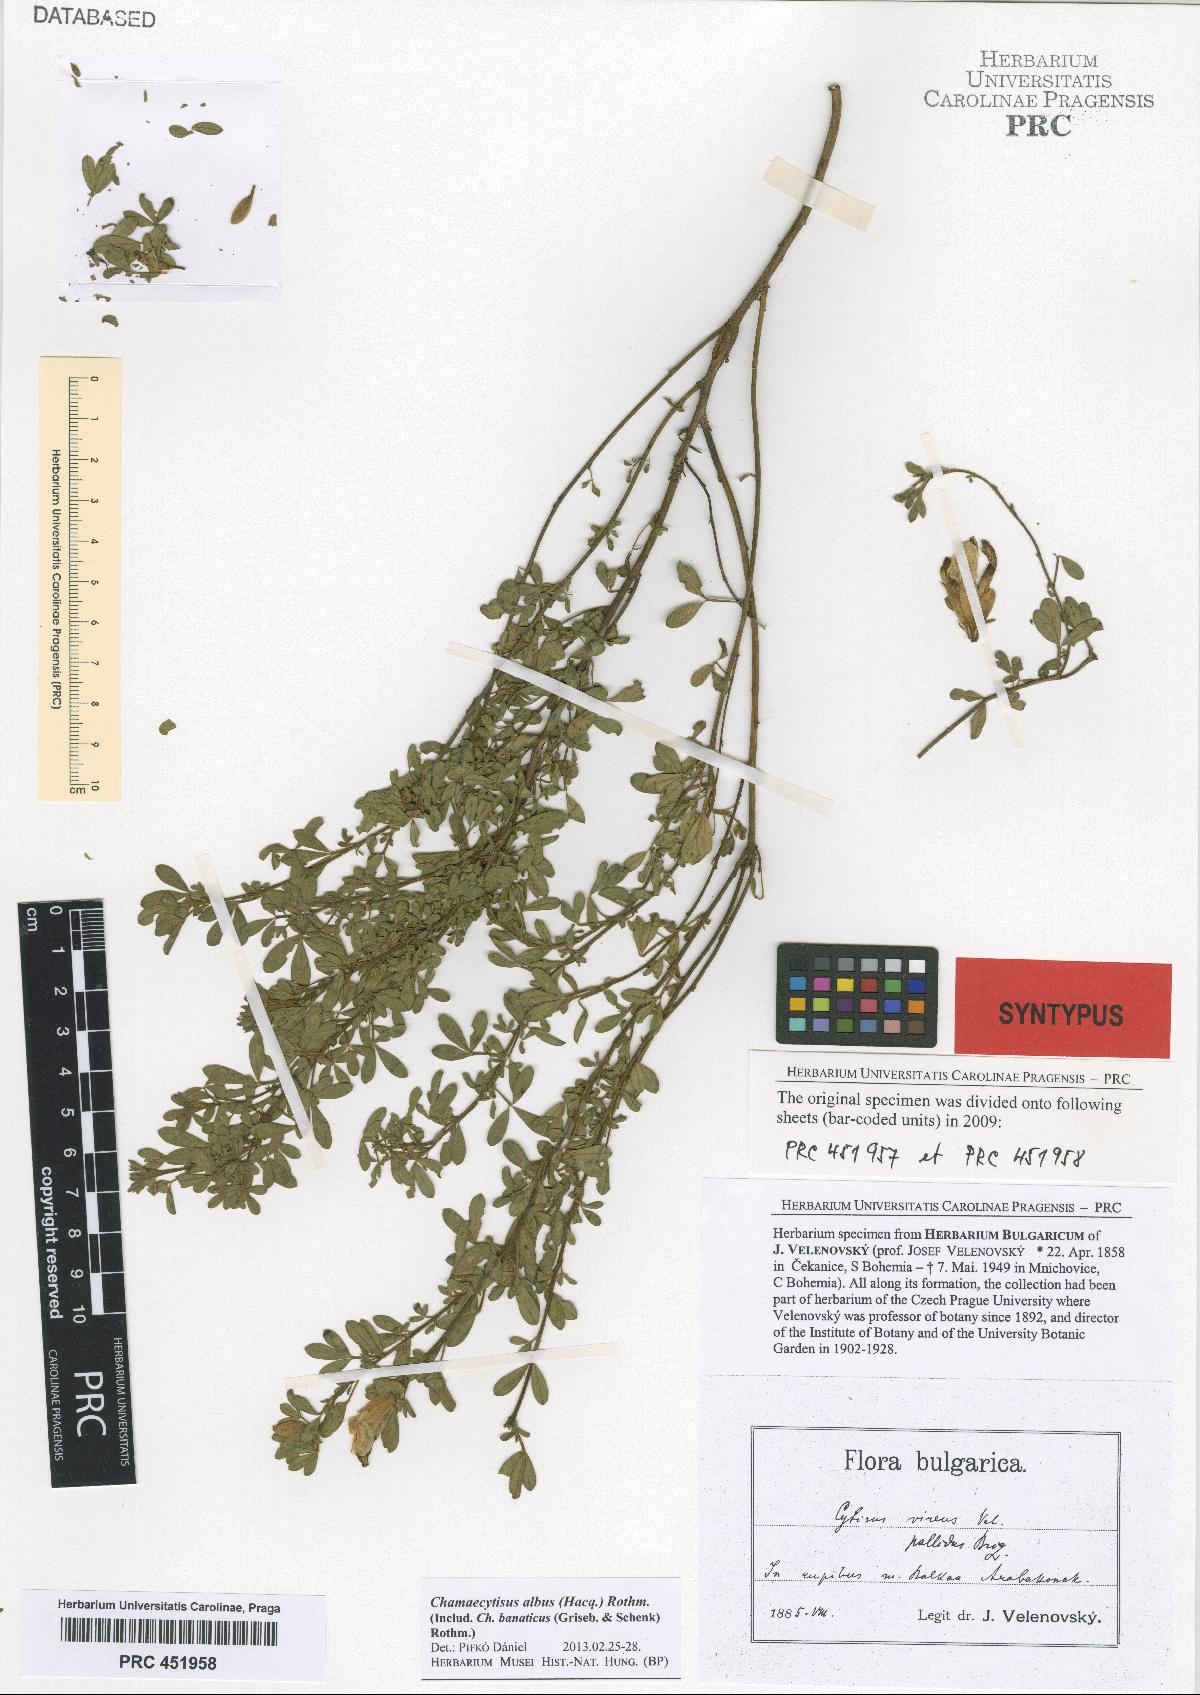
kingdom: Plantae
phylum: Tracheophyta
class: Magnoliopsida
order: Fabales
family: Fabaceae
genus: Chamaecytisus
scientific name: Chamaecytisus albus
